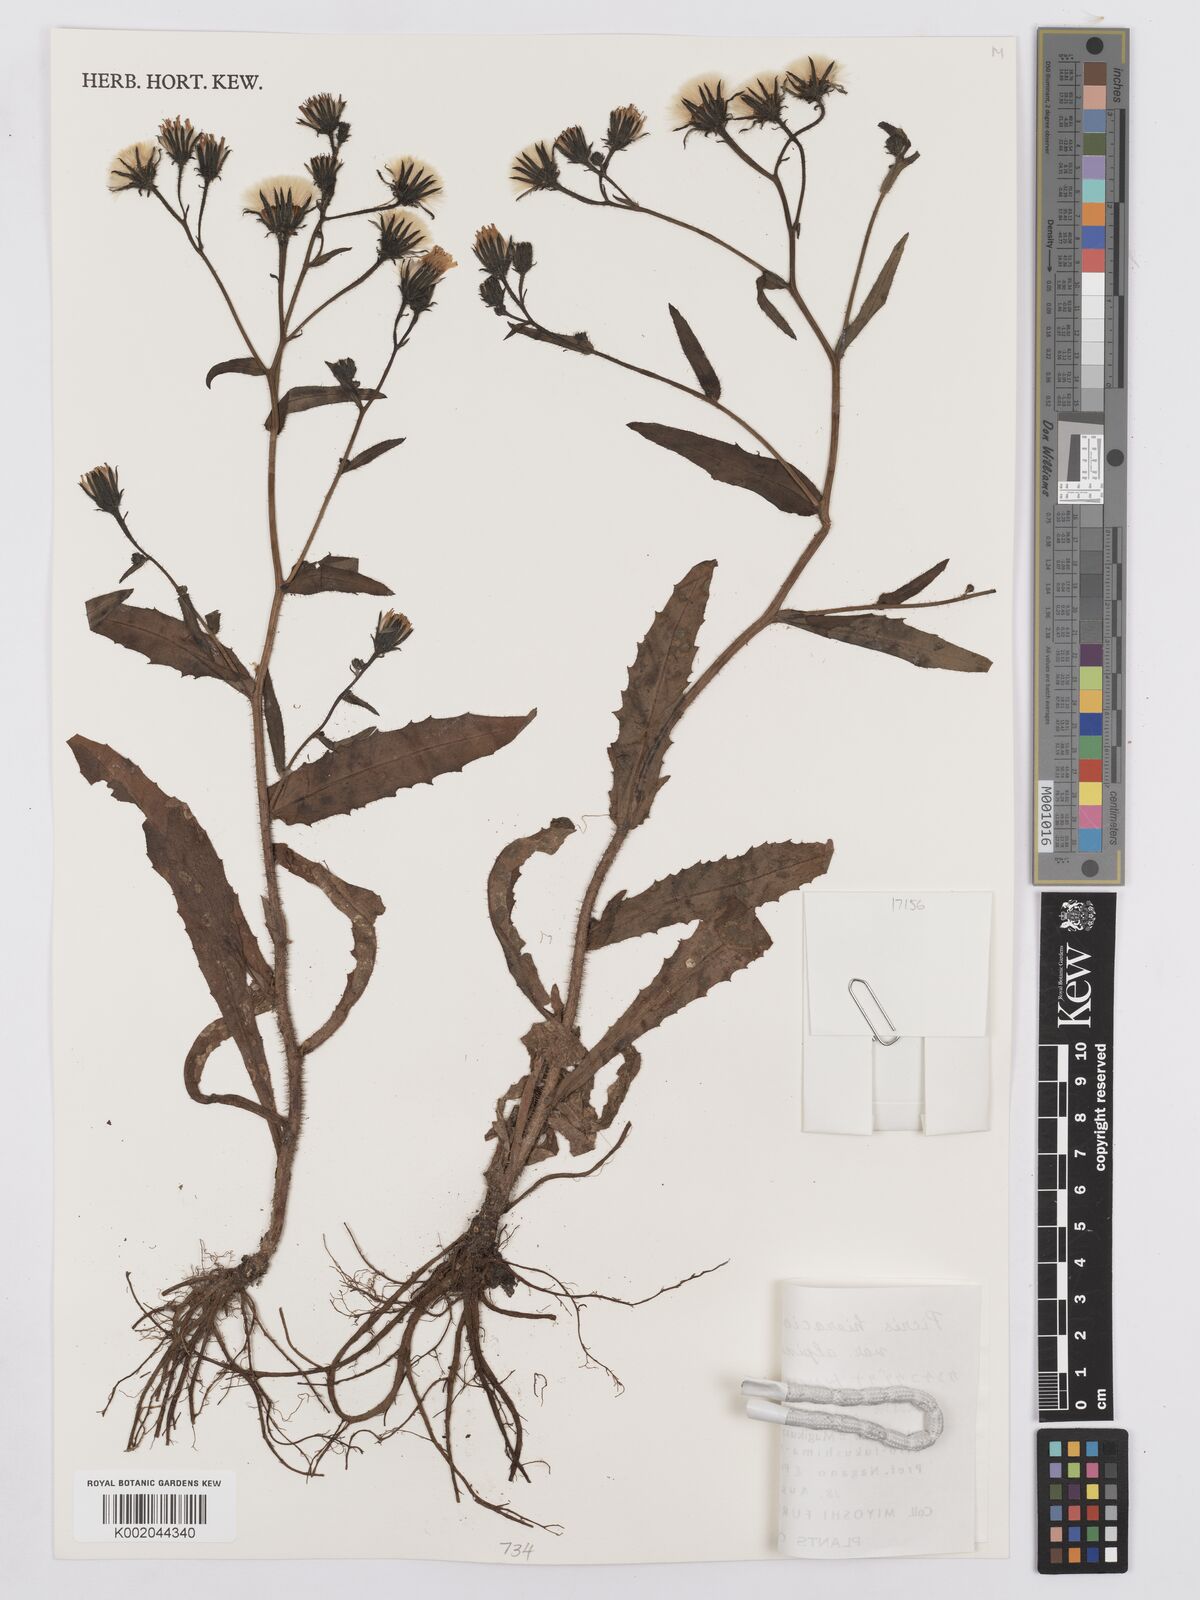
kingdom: Plantae
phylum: Tracheophyta
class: Magnoliopsida
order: Asterales
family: Asteraceae
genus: Picris
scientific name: Picris hieracioides
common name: Hawkweed oxtongue
